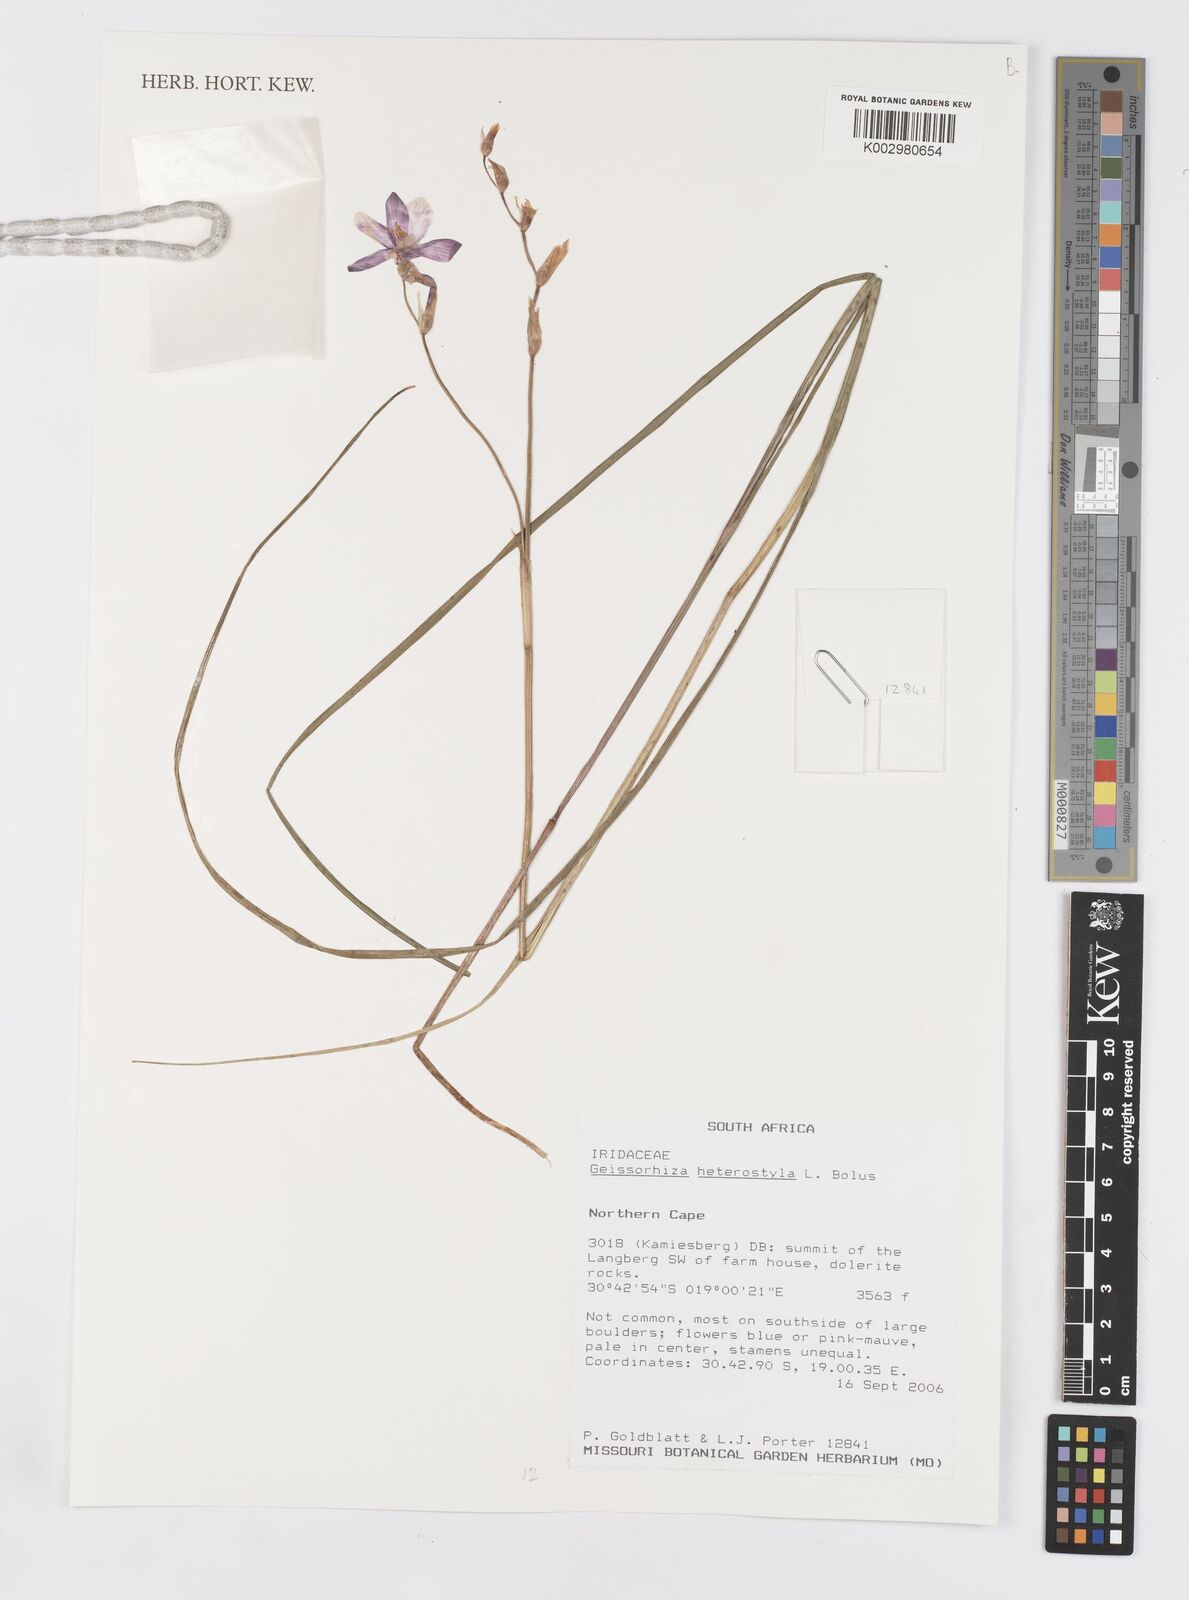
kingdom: Plantae
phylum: Tracheophyta
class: Liliopsida
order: Asparagales
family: Iridaceae
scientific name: Iridaceae
